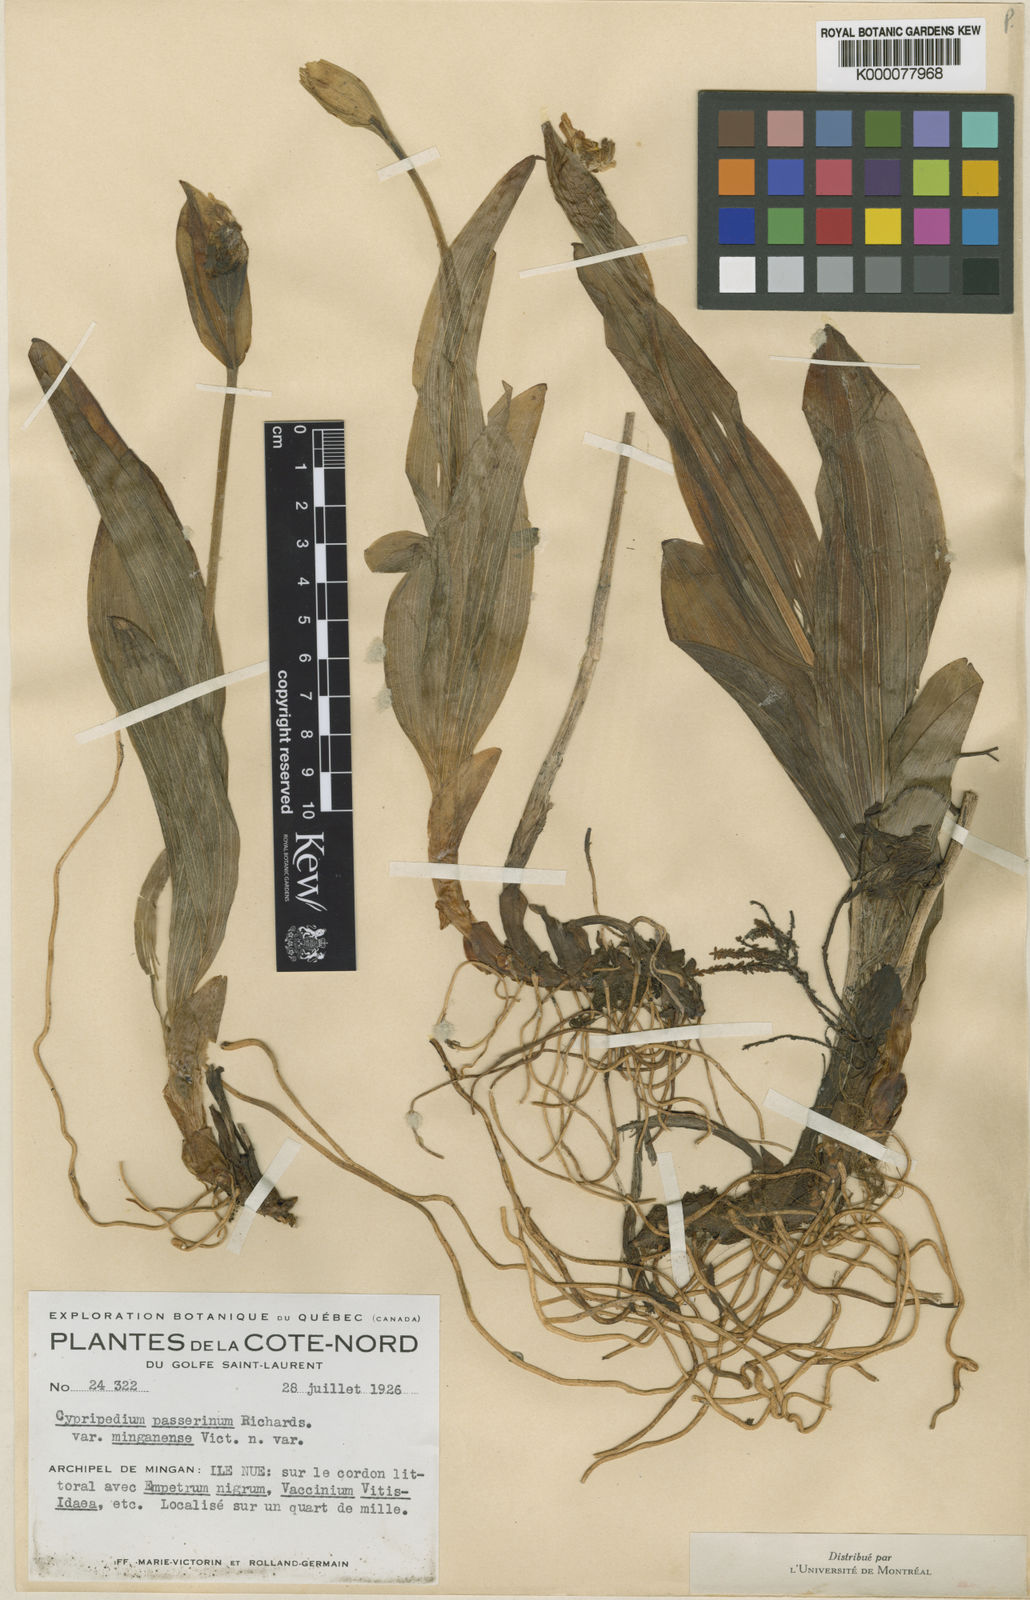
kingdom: Plantae
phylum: Tracheophyta
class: Liliopsida
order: Asparagales
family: Orchidaceae
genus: Cypripedium
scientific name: Cypripedium passerinum
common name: Sparrow's-egg lady's-slipper
